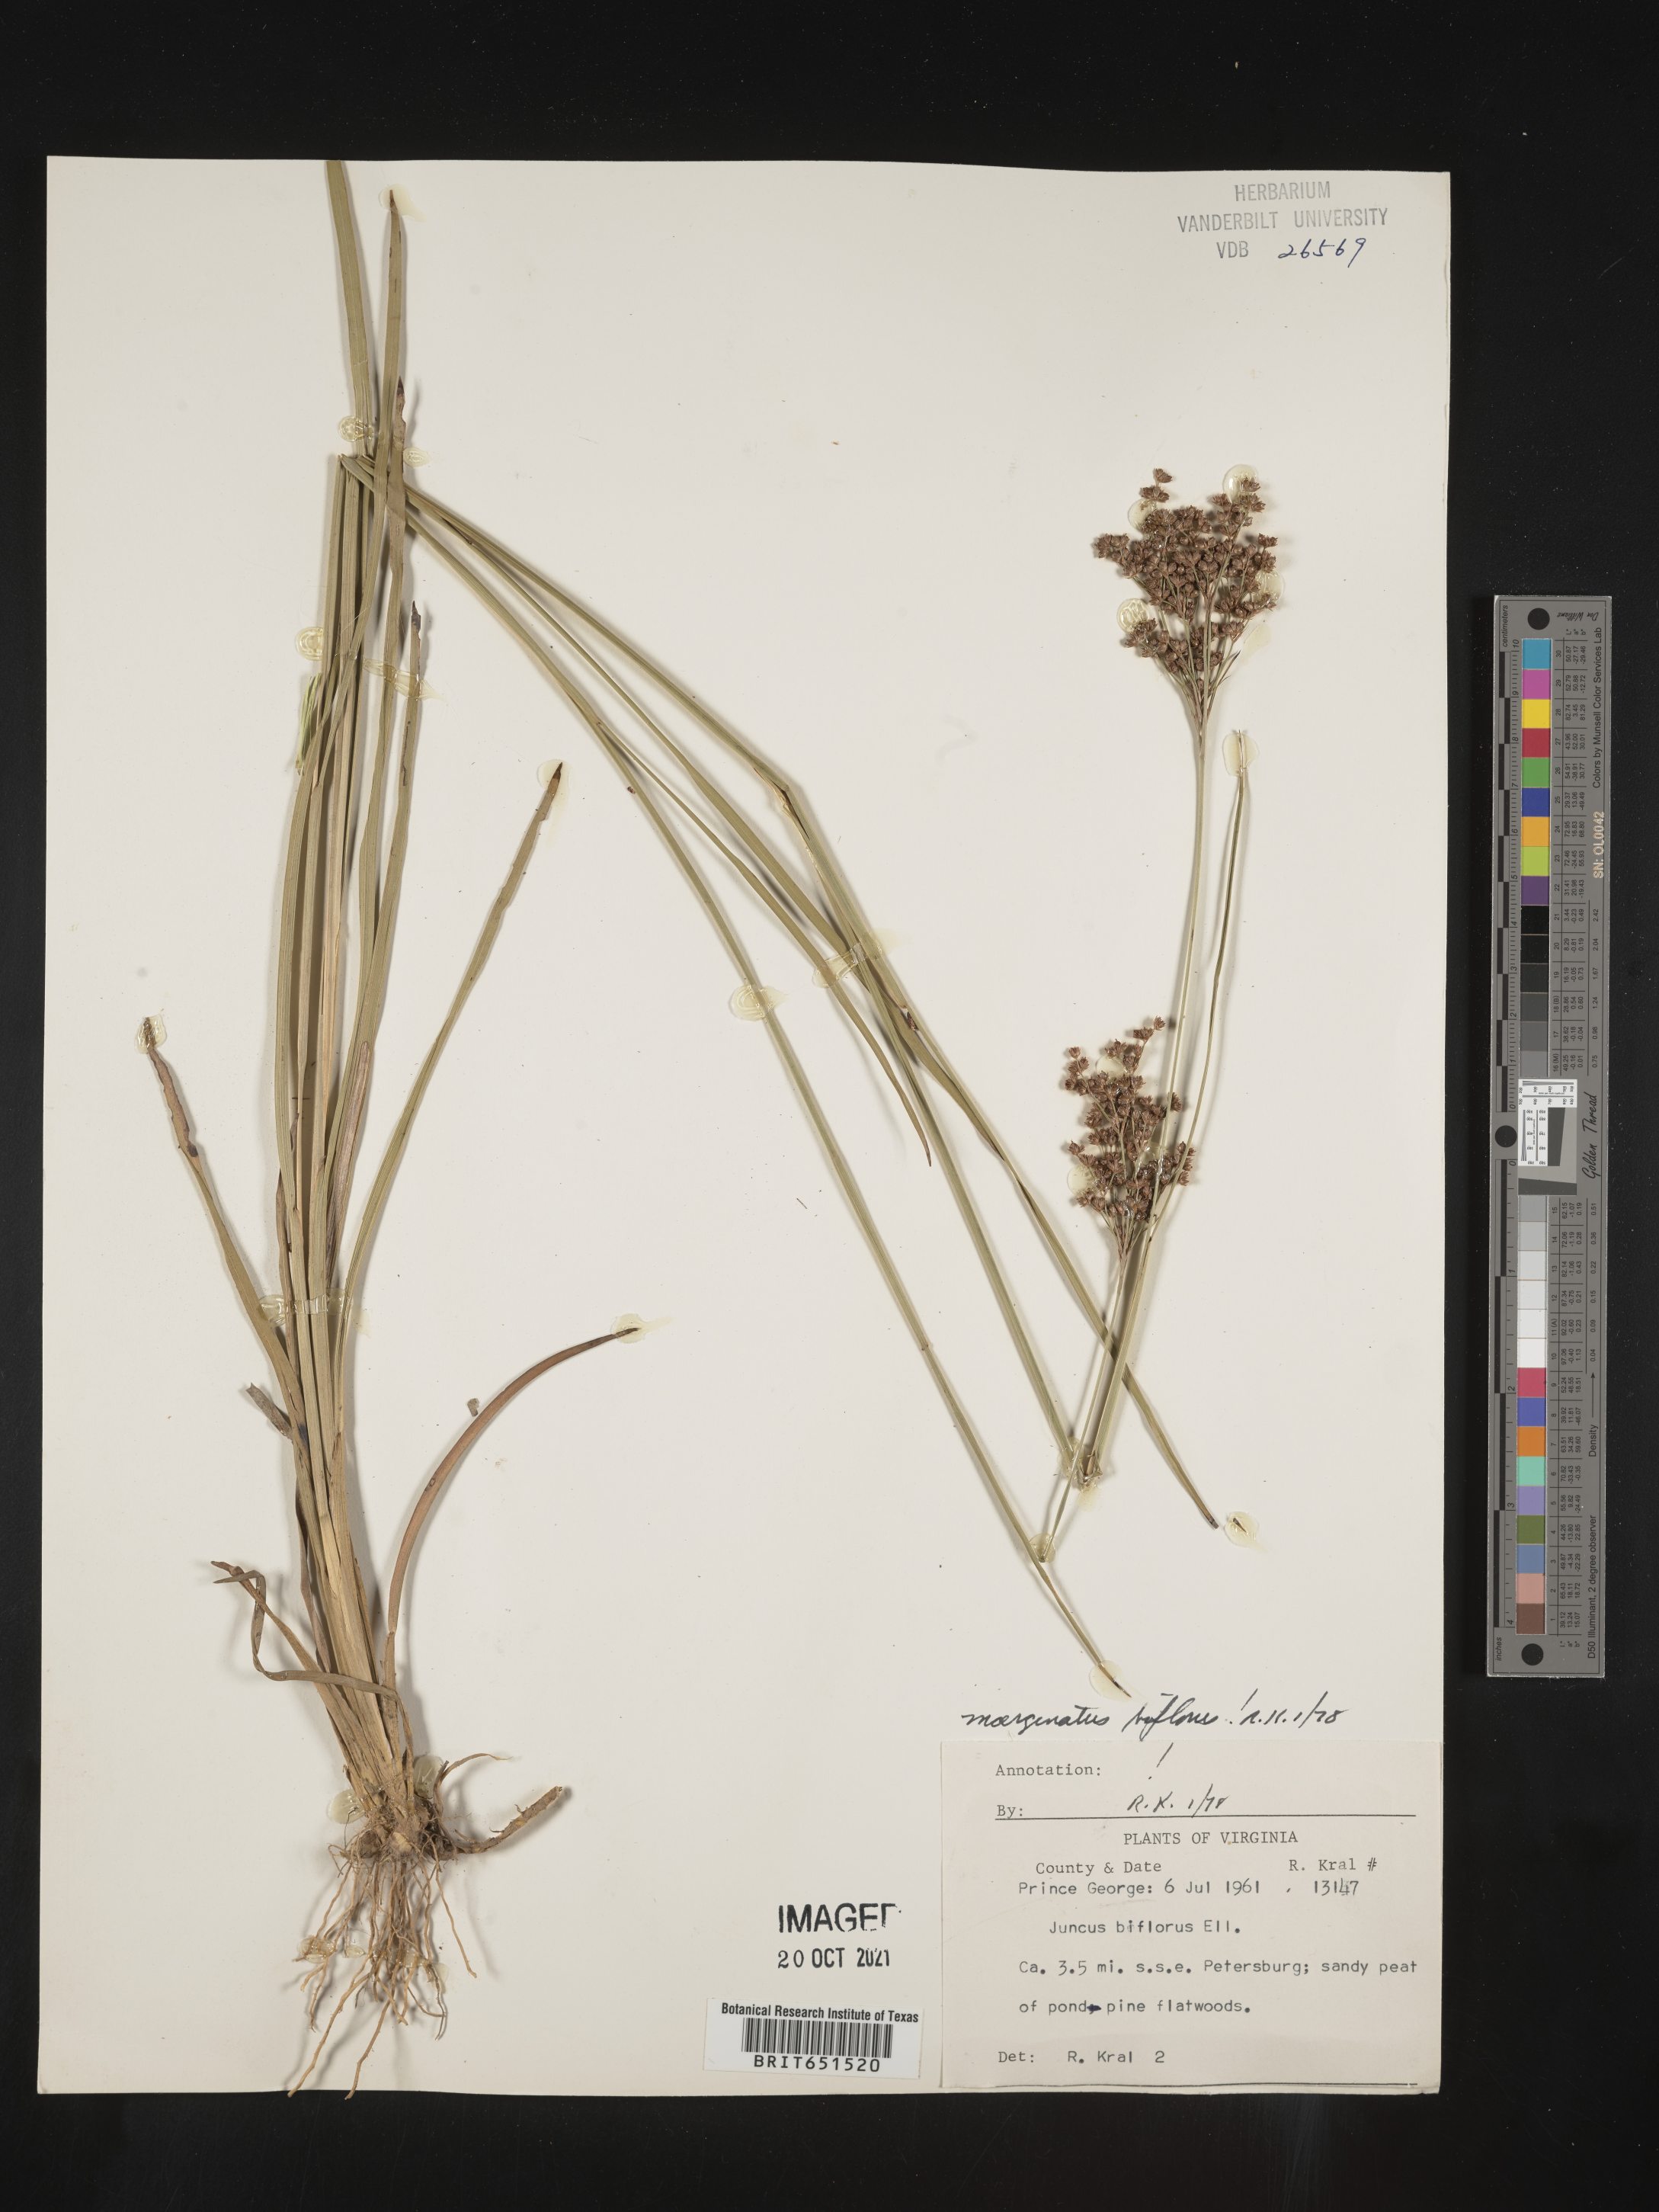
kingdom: Plantae
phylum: Tracheophyta
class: Liliopsida
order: Poales
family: Juncaceae
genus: Juncus
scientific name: Juncus biflorus
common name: Two-flowered rush
